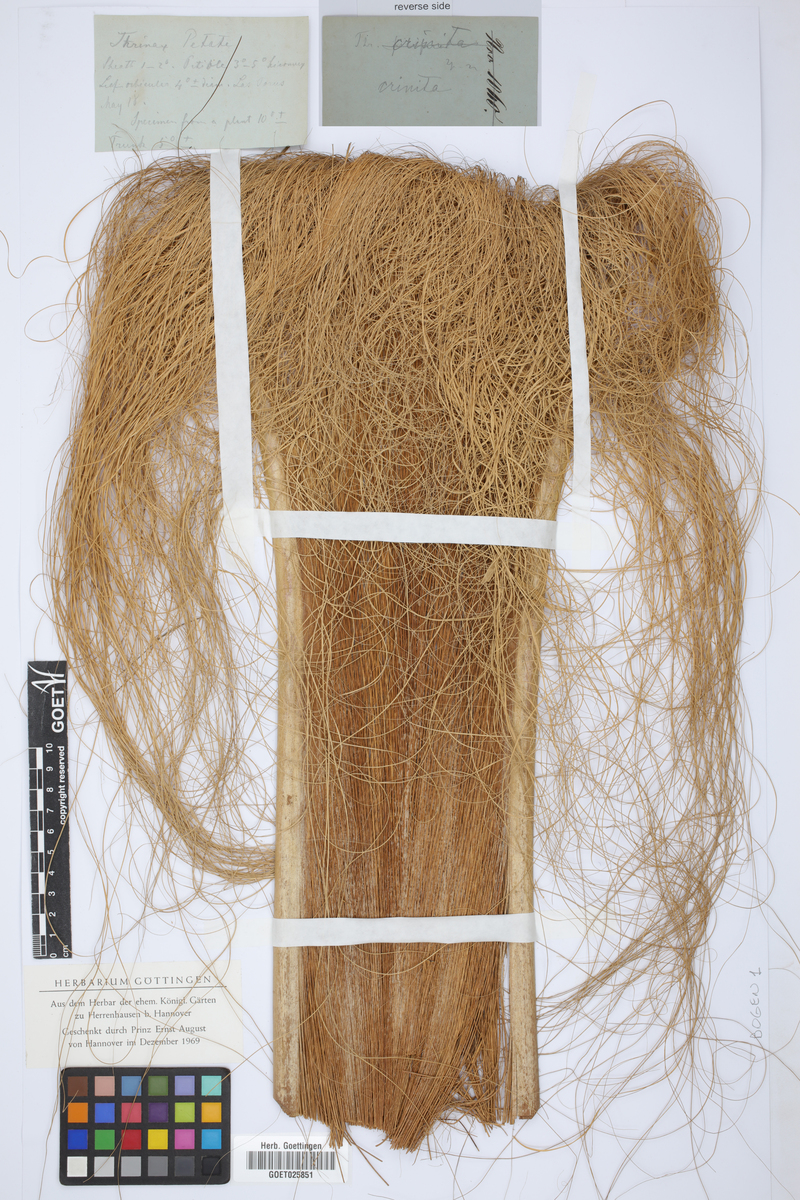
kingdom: Plantae
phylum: Tracheophyta
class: Liliopsida
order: Arecales
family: Arecaceae
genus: Coccothrinax
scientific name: Coccothrinax crinita
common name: Thatch palm
